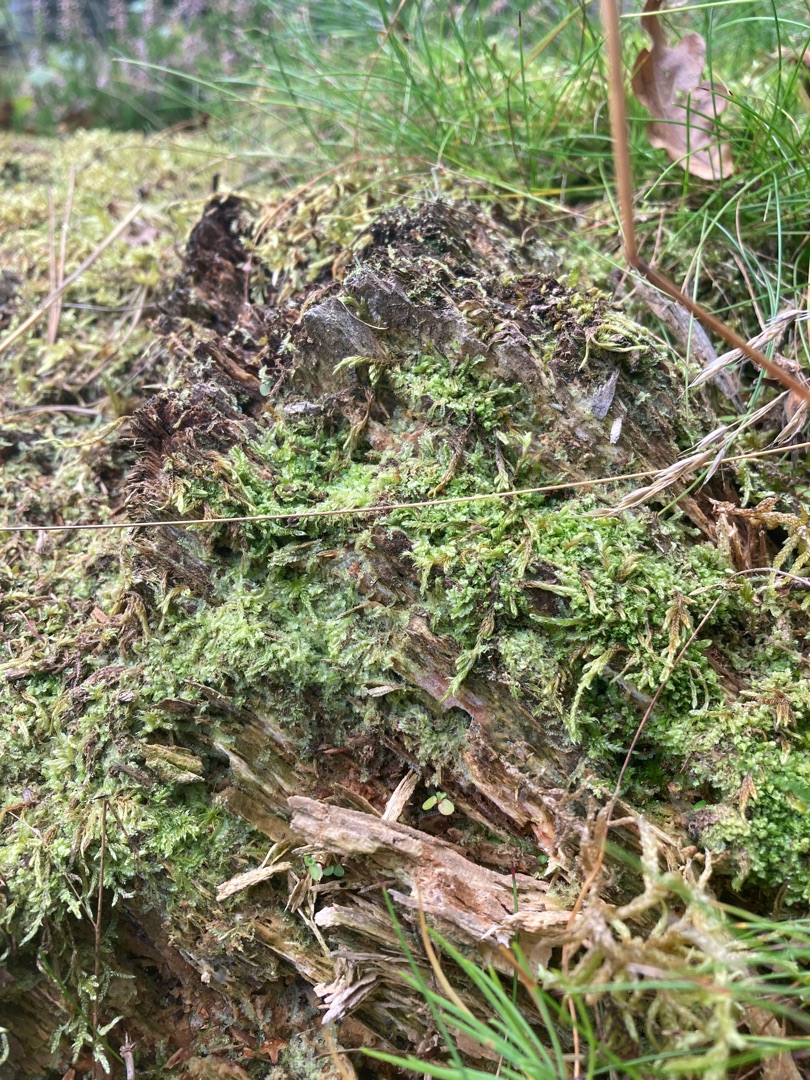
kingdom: Plantae
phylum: Marchantiophyta
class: Jungermanniopsida
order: Jungermanniales
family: Lophocoleaceae
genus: Lophocolea
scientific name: Lophocolea bidentata
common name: Sylspidset kamsvøb
